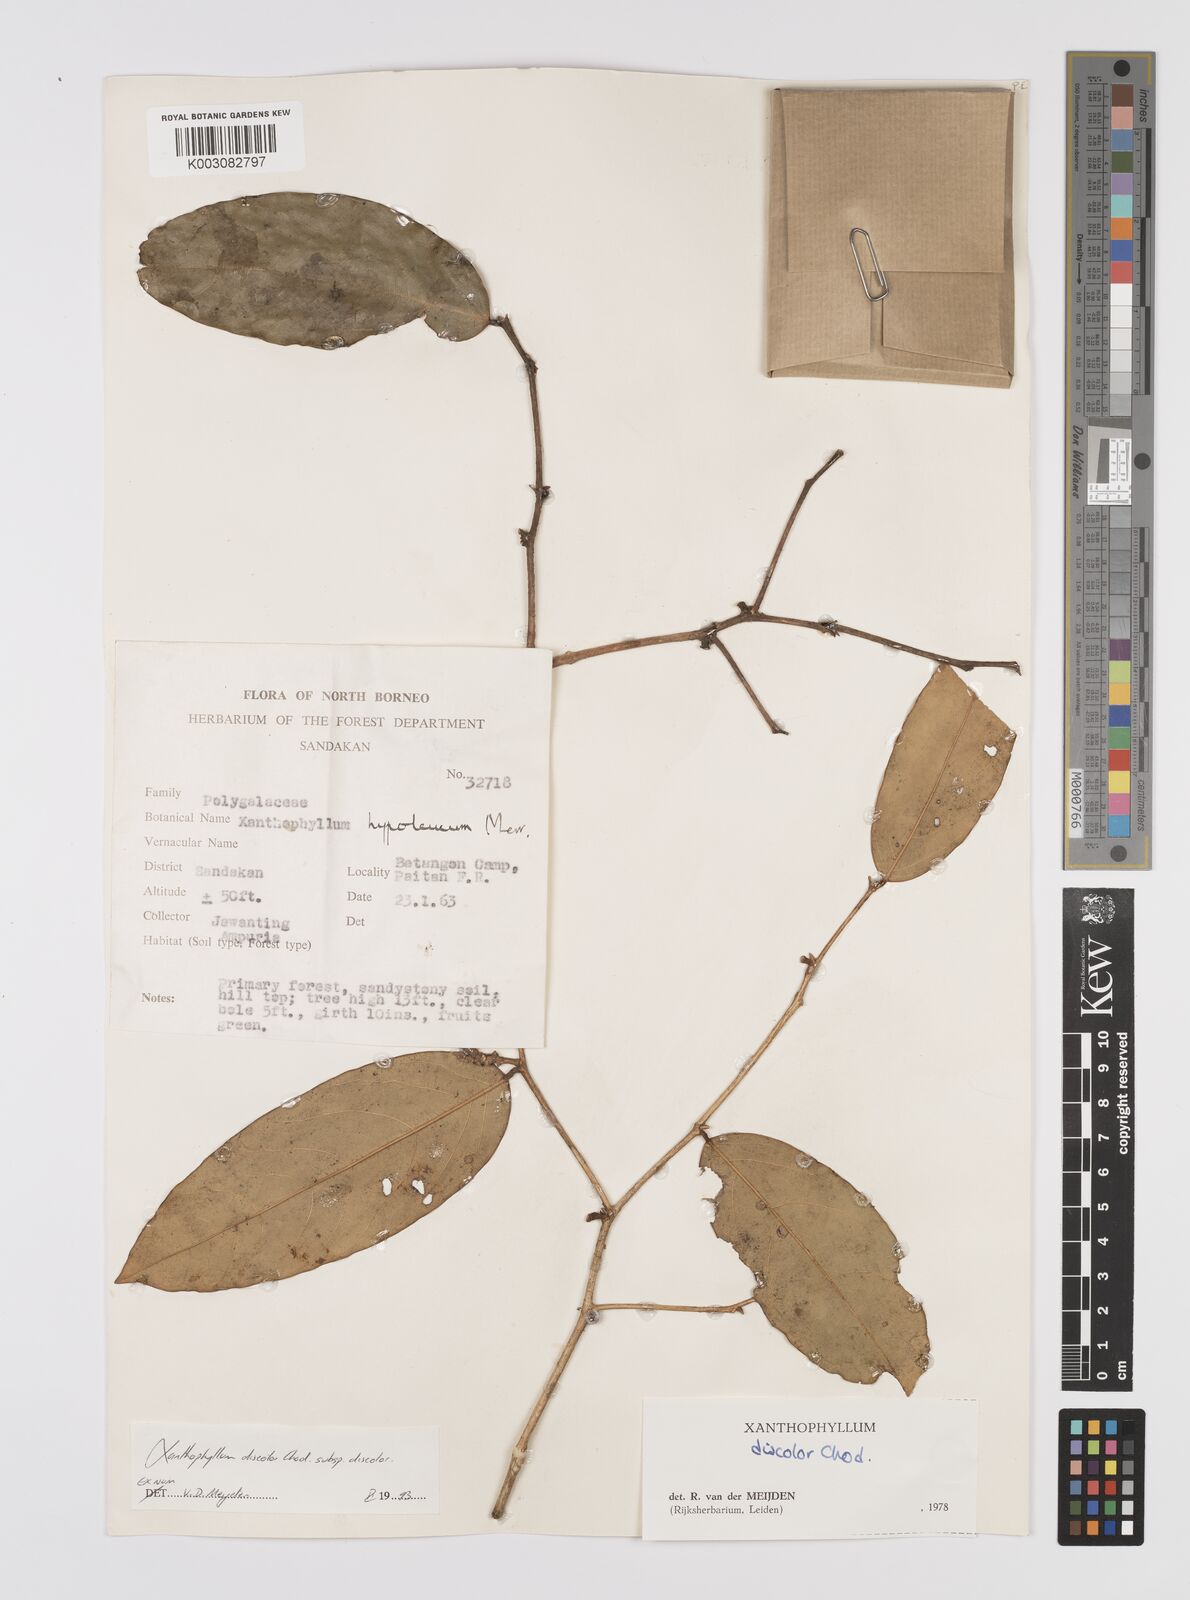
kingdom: Plantae
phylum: Tracheophyta
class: Magnoliopsida
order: Fabales
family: Polygalaceae
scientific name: Polygalaceae
